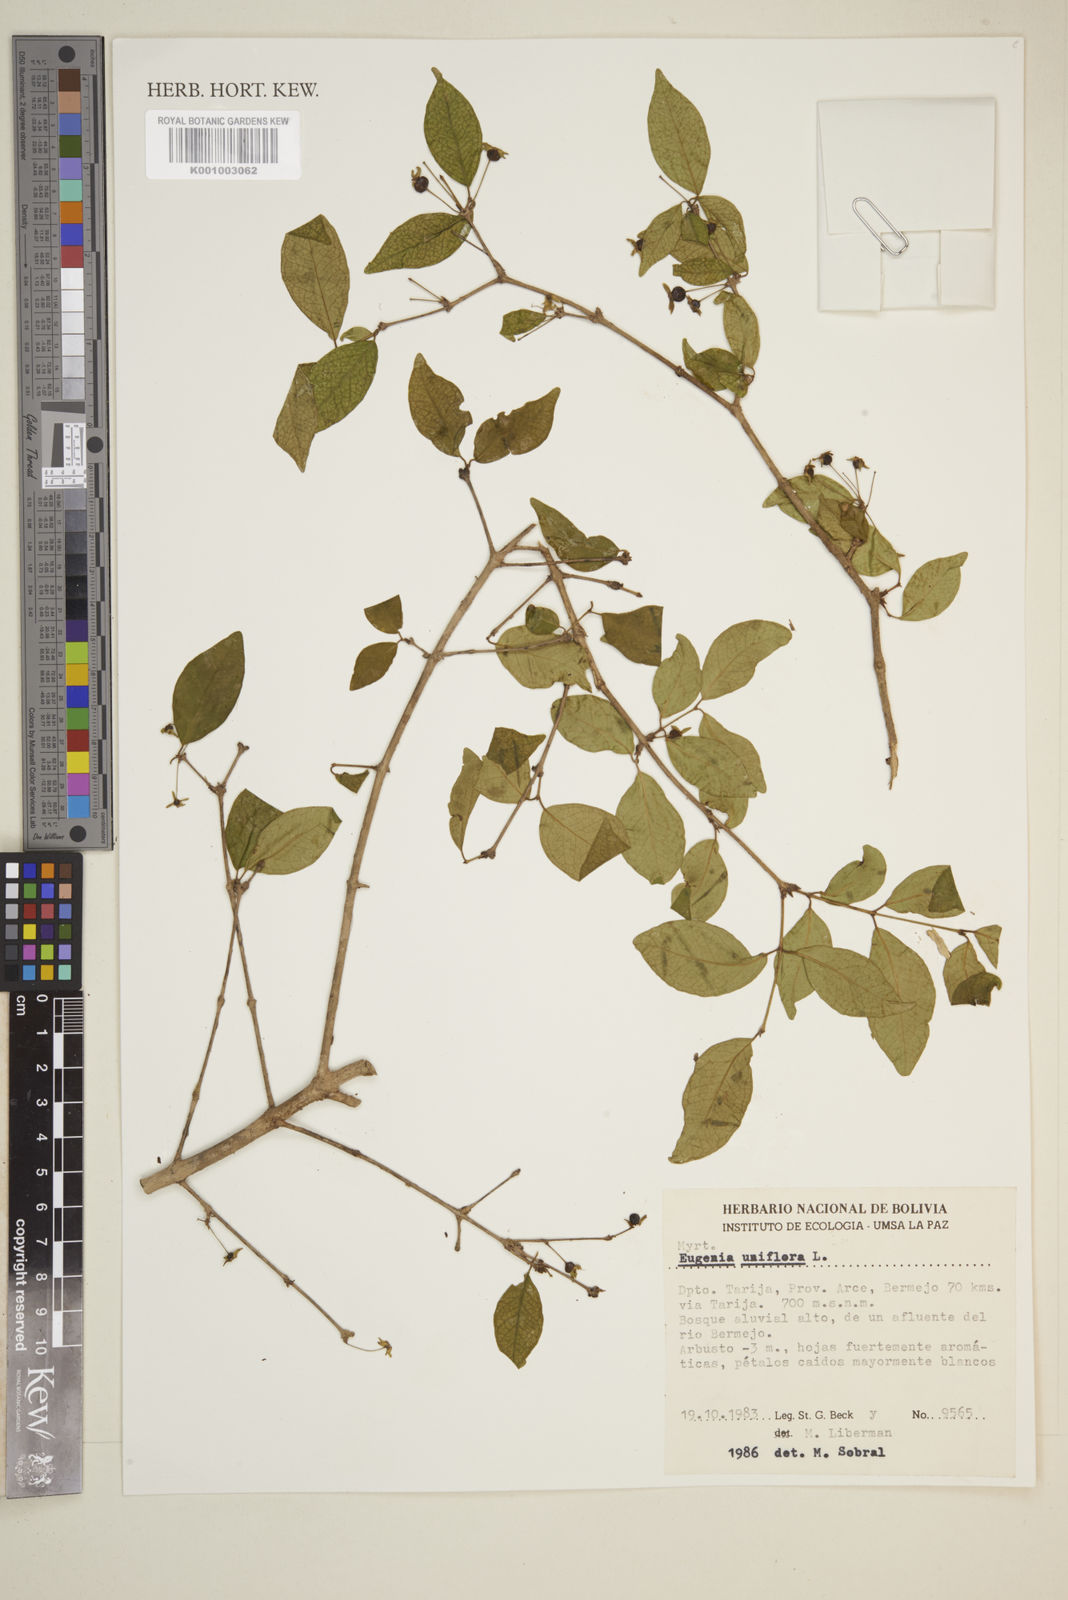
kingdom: Plantae
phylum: Tracheophyta
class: Magnoliopsida
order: Myrtales
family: Myrtaceae
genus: Eugenia
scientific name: Eugenia uniflora
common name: Surinam cherry
